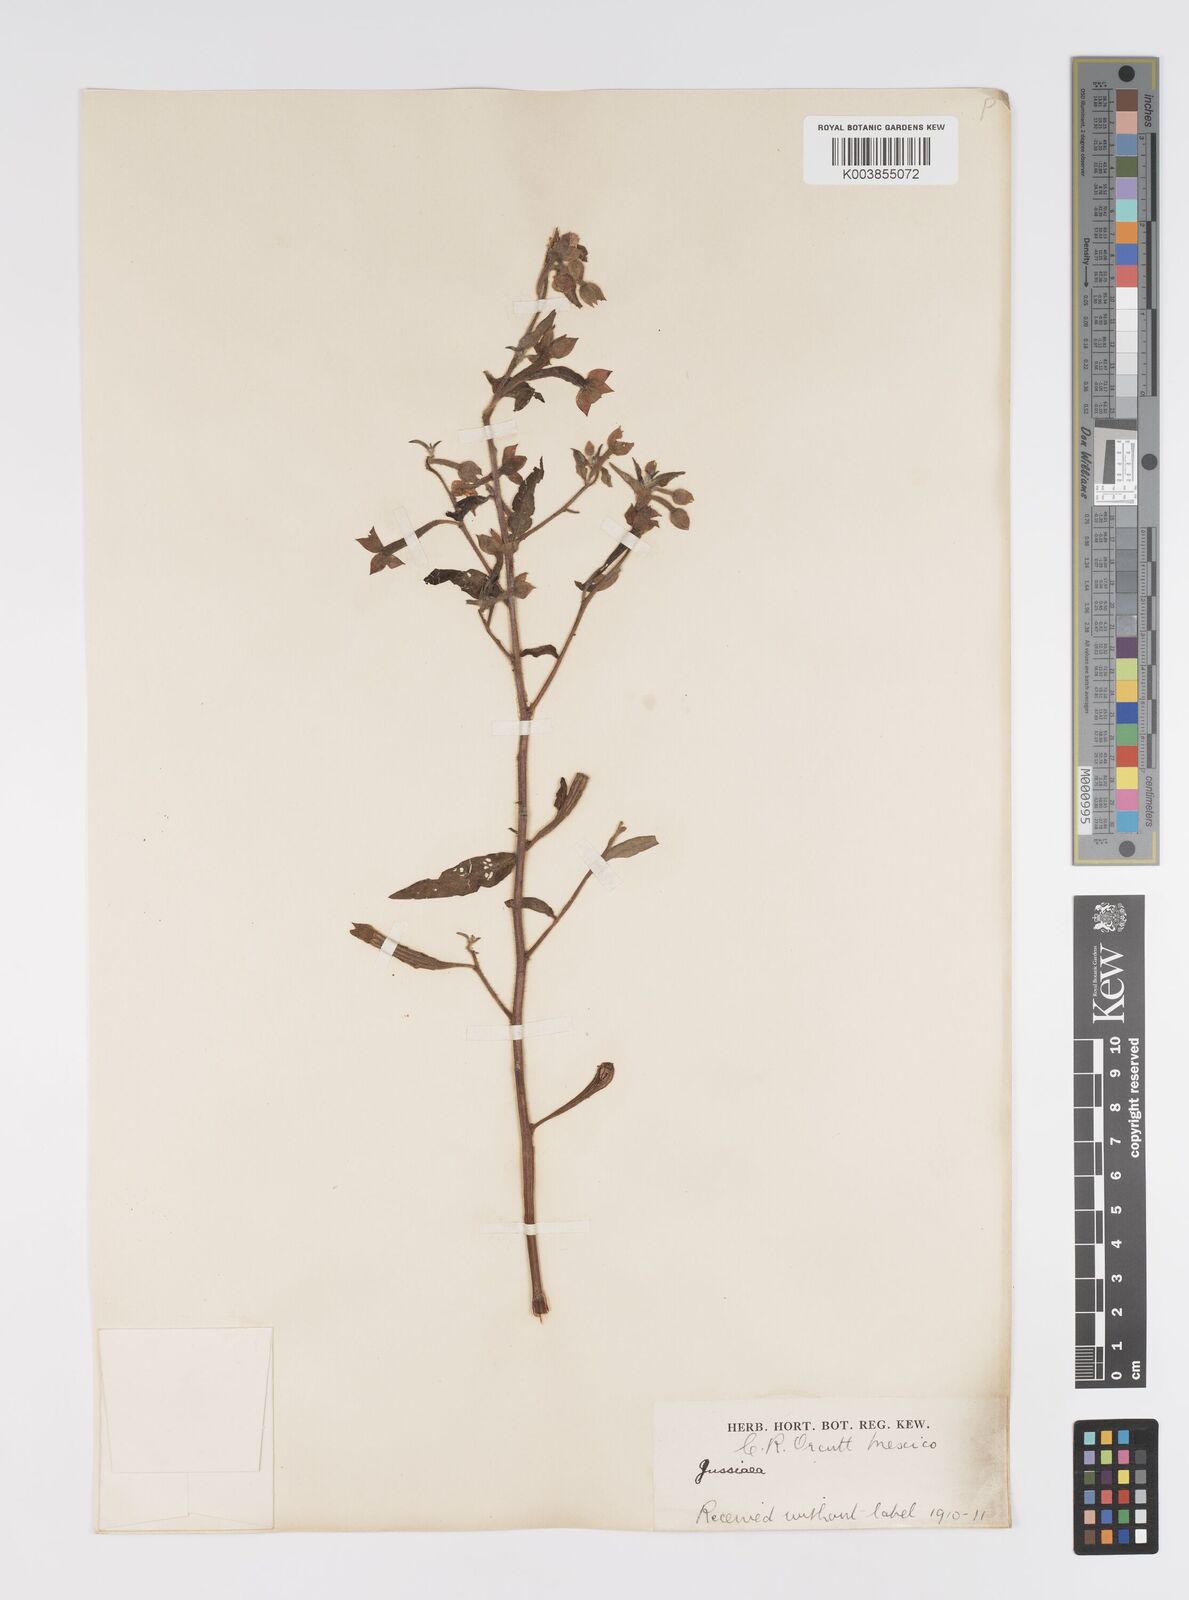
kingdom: Plantae
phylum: Tracheophyta
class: Magnoliopsida
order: Myrtales
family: Onagraceae
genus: Ludwigia
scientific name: Ludwigia octovalvis
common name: Water-primrose
